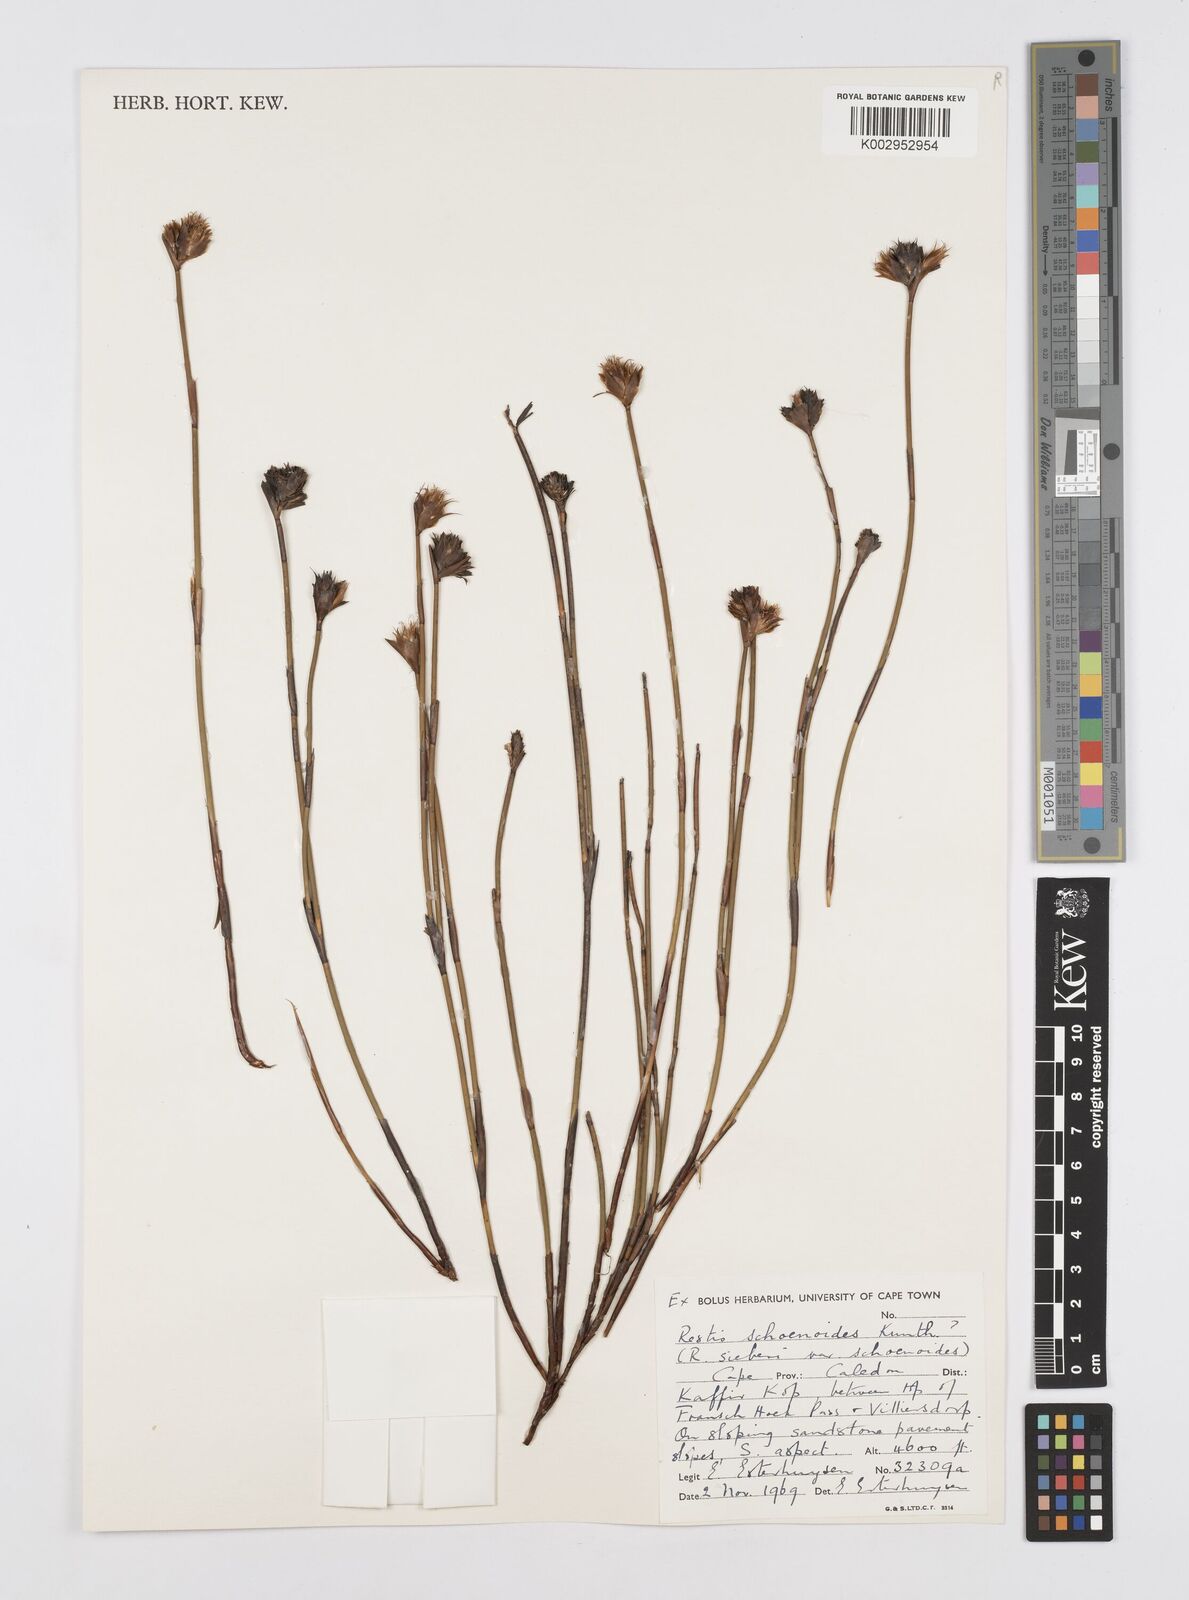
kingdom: Plantae
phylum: Tracheophyta
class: Liliopsida
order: Poales
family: Restionaceae
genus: Restio
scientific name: Restio schoenoides
